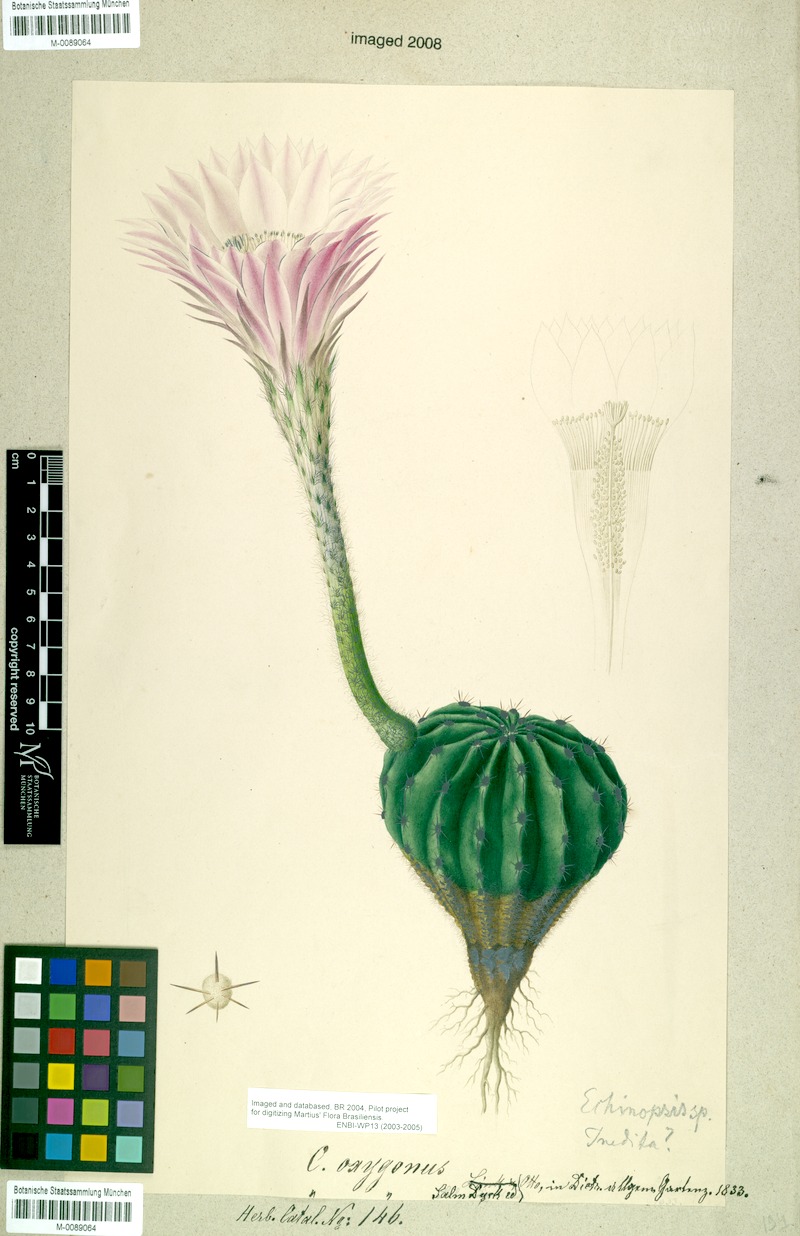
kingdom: Plantae
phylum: Tracheophyta
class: Magnoliopsida
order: Caryophyllales
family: Cactaceae
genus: Echinopsis
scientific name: Echinopsis oxygona
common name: Red easter-lily cactus
